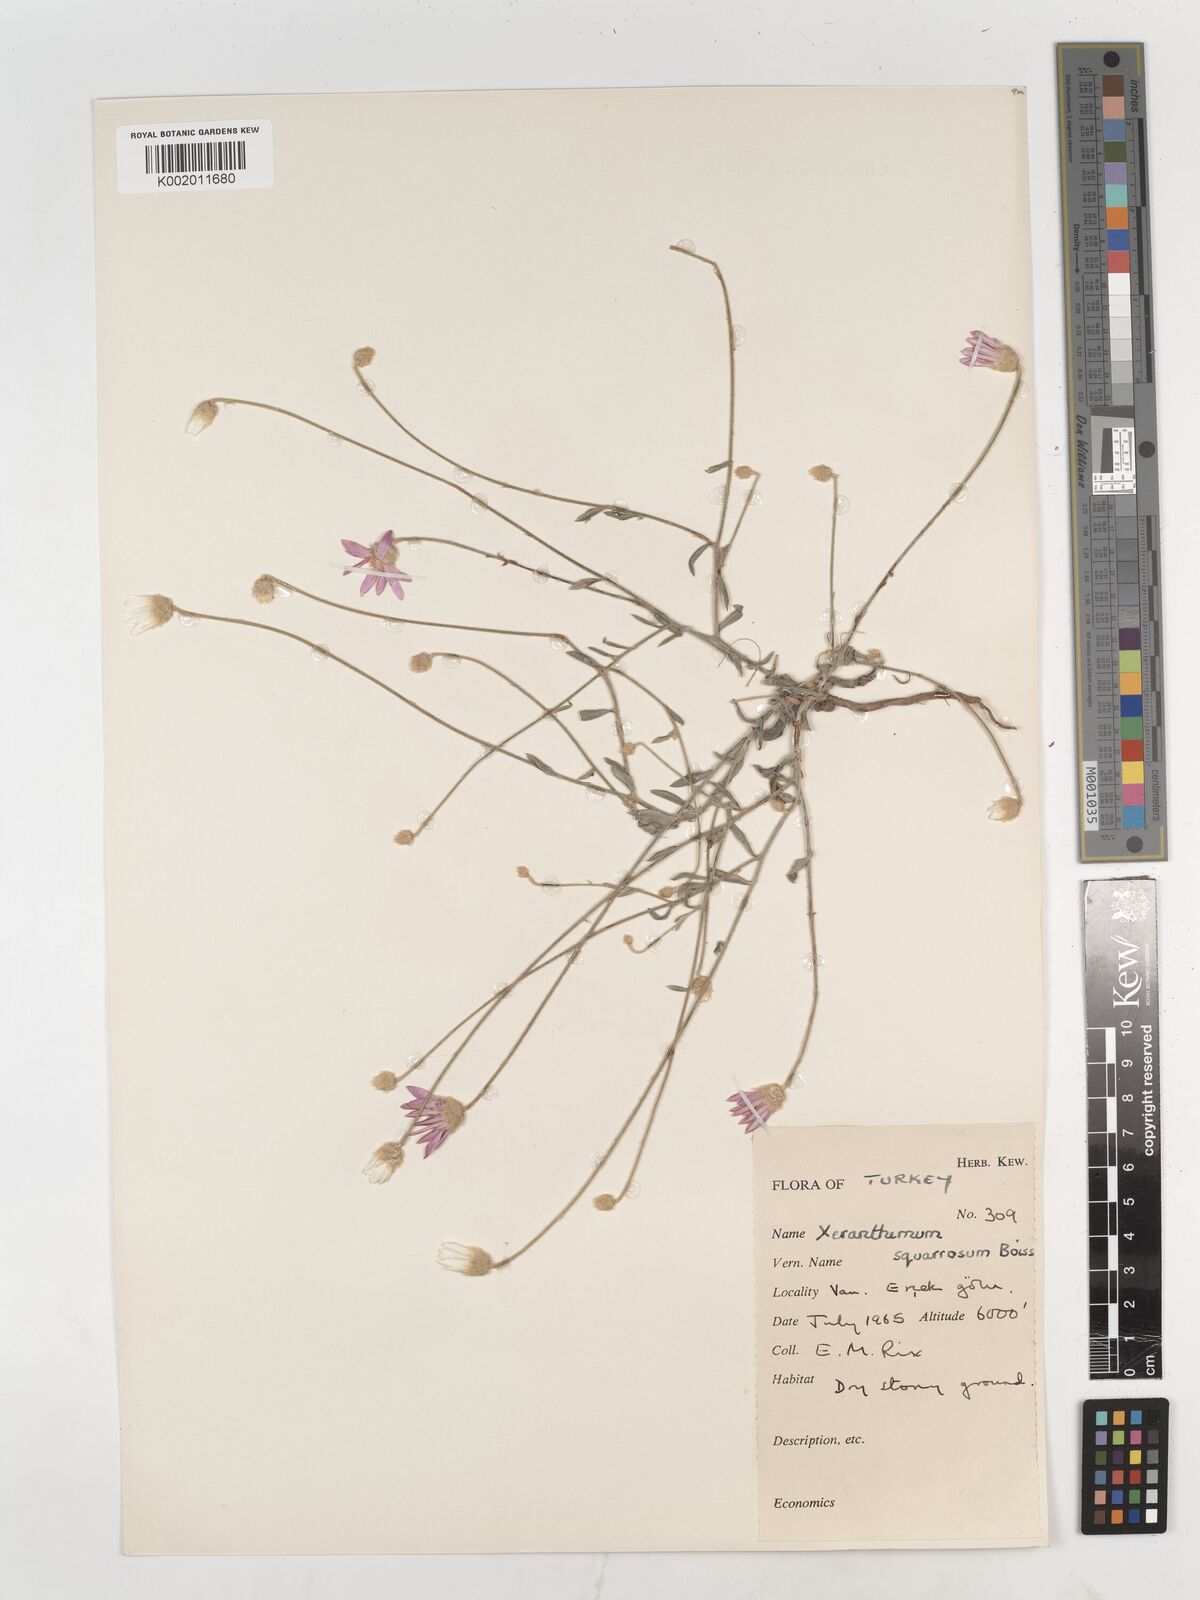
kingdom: Plantae
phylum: Tracheophyta
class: Magnoliopsida
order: Asterales
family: Asteraceae
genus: Xeranthemum
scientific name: Xeranthemum squarrosum
